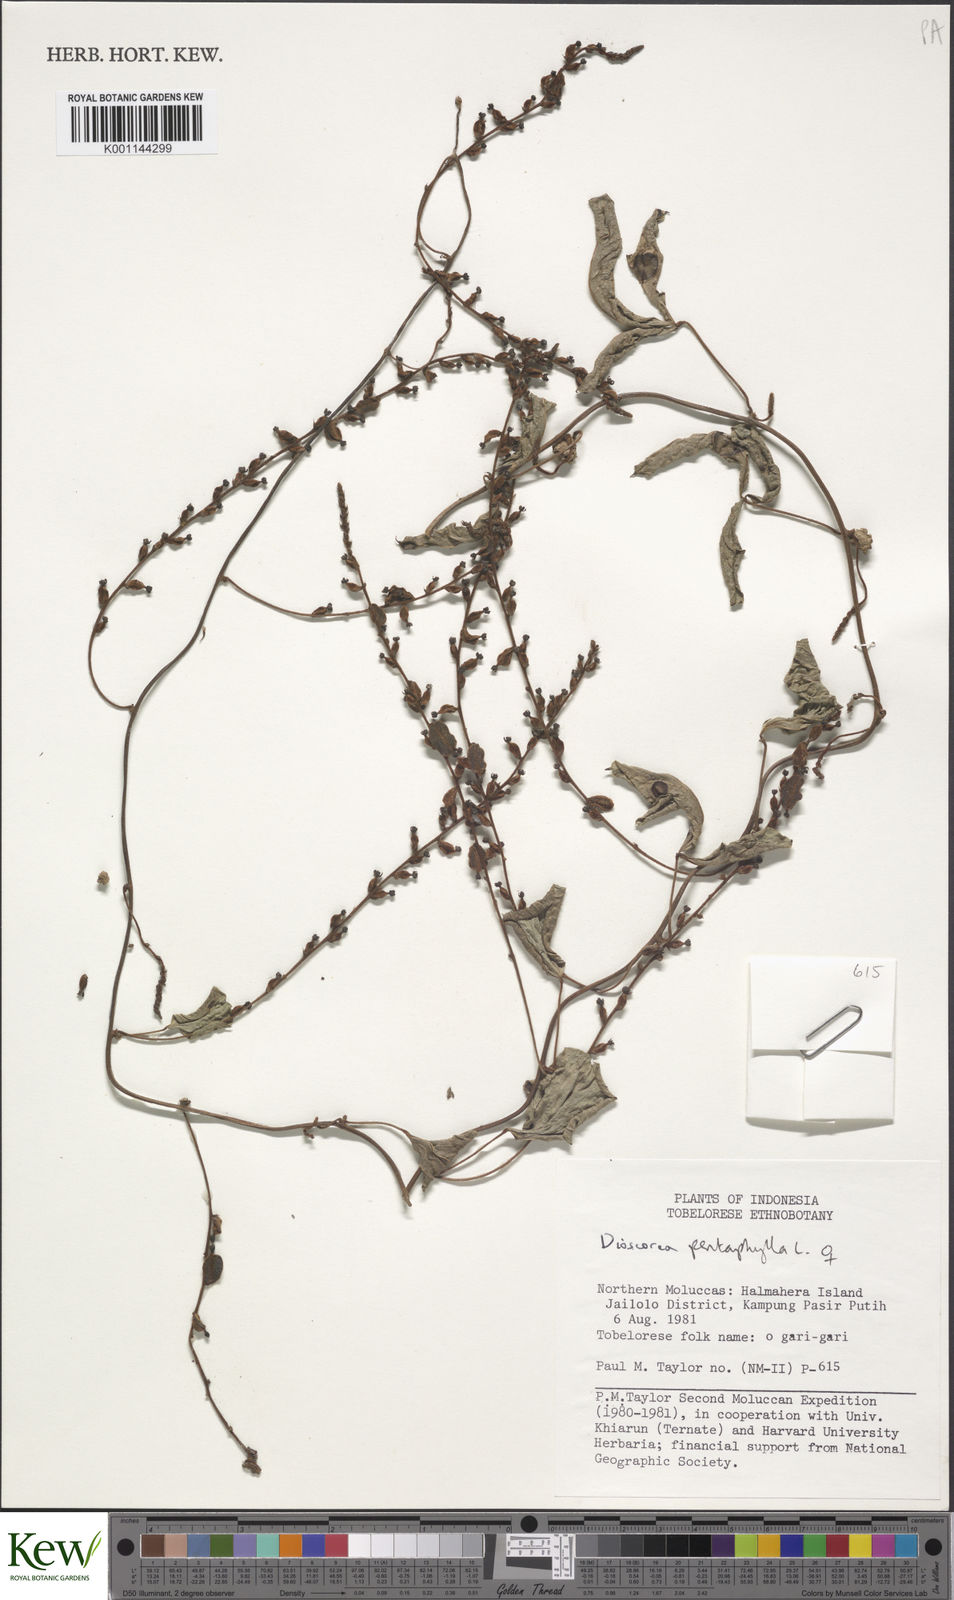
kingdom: Plantae
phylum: Tracheophyta
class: Liliopsida
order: Dioscoreales
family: Dioscoreaceae
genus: Dioscorea
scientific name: Dioscorea pentaphylla
